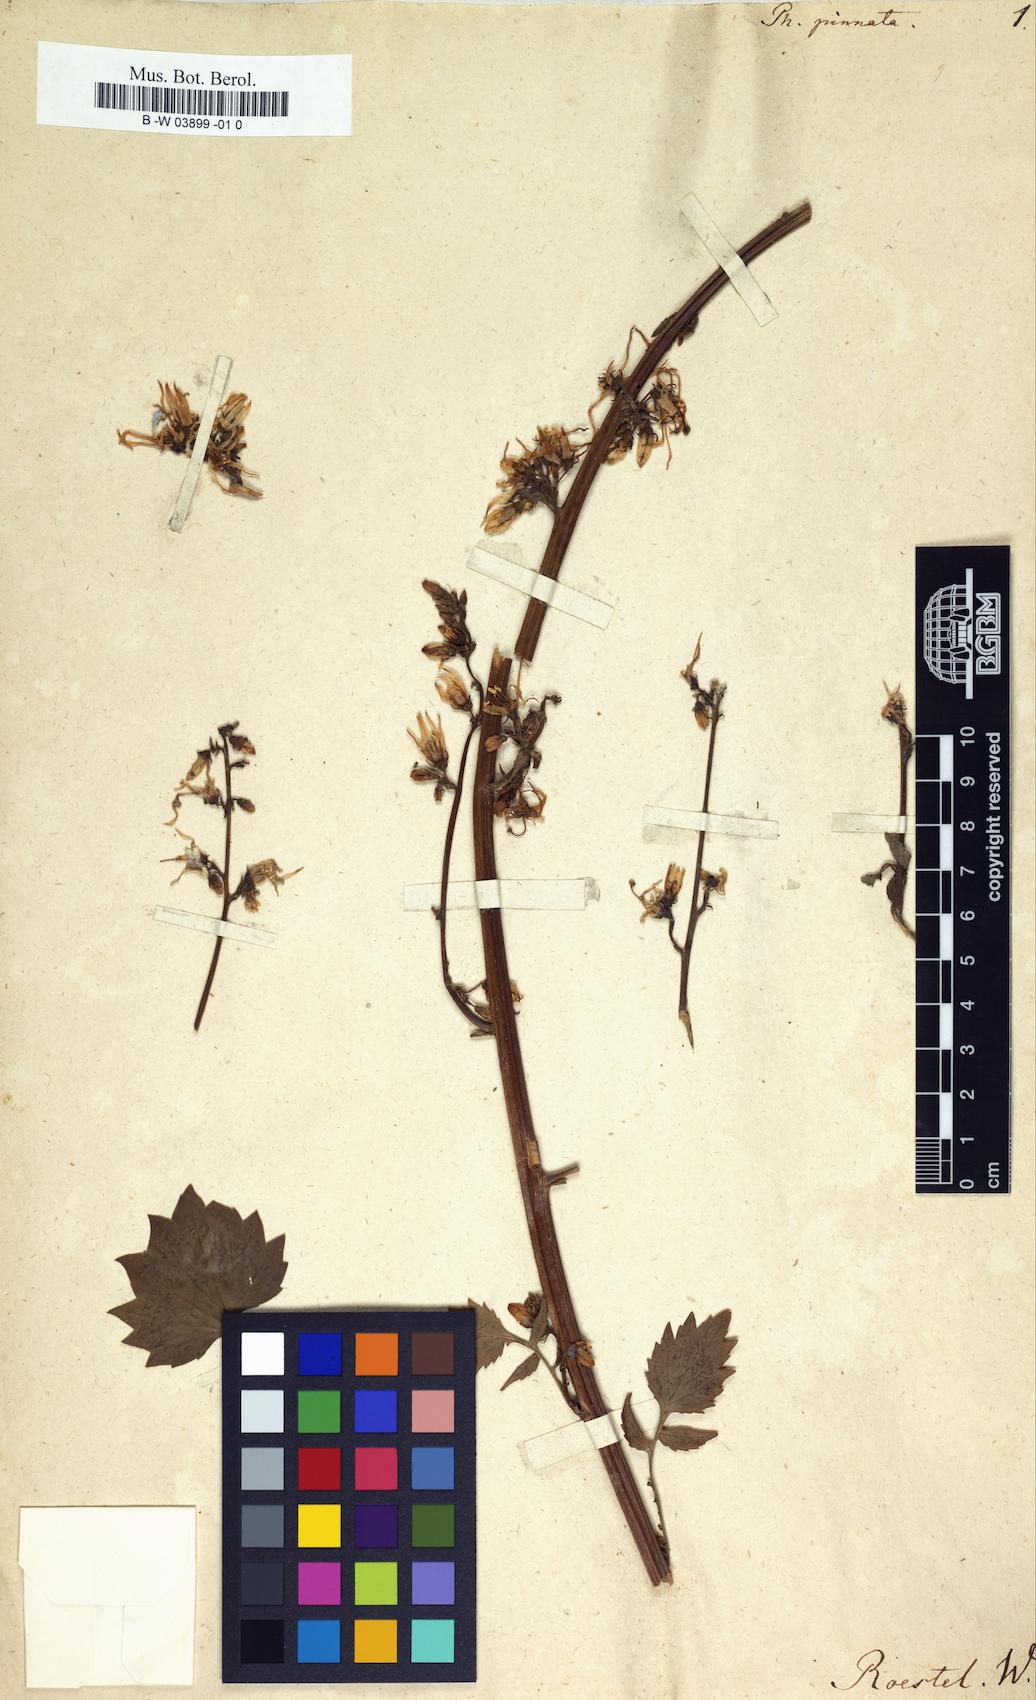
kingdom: Plantae
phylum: Tracheophyta
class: Magnoliopsida
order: Asterales
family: Campanulaceae
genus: Petromarula
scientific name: Petromarula pinnata
